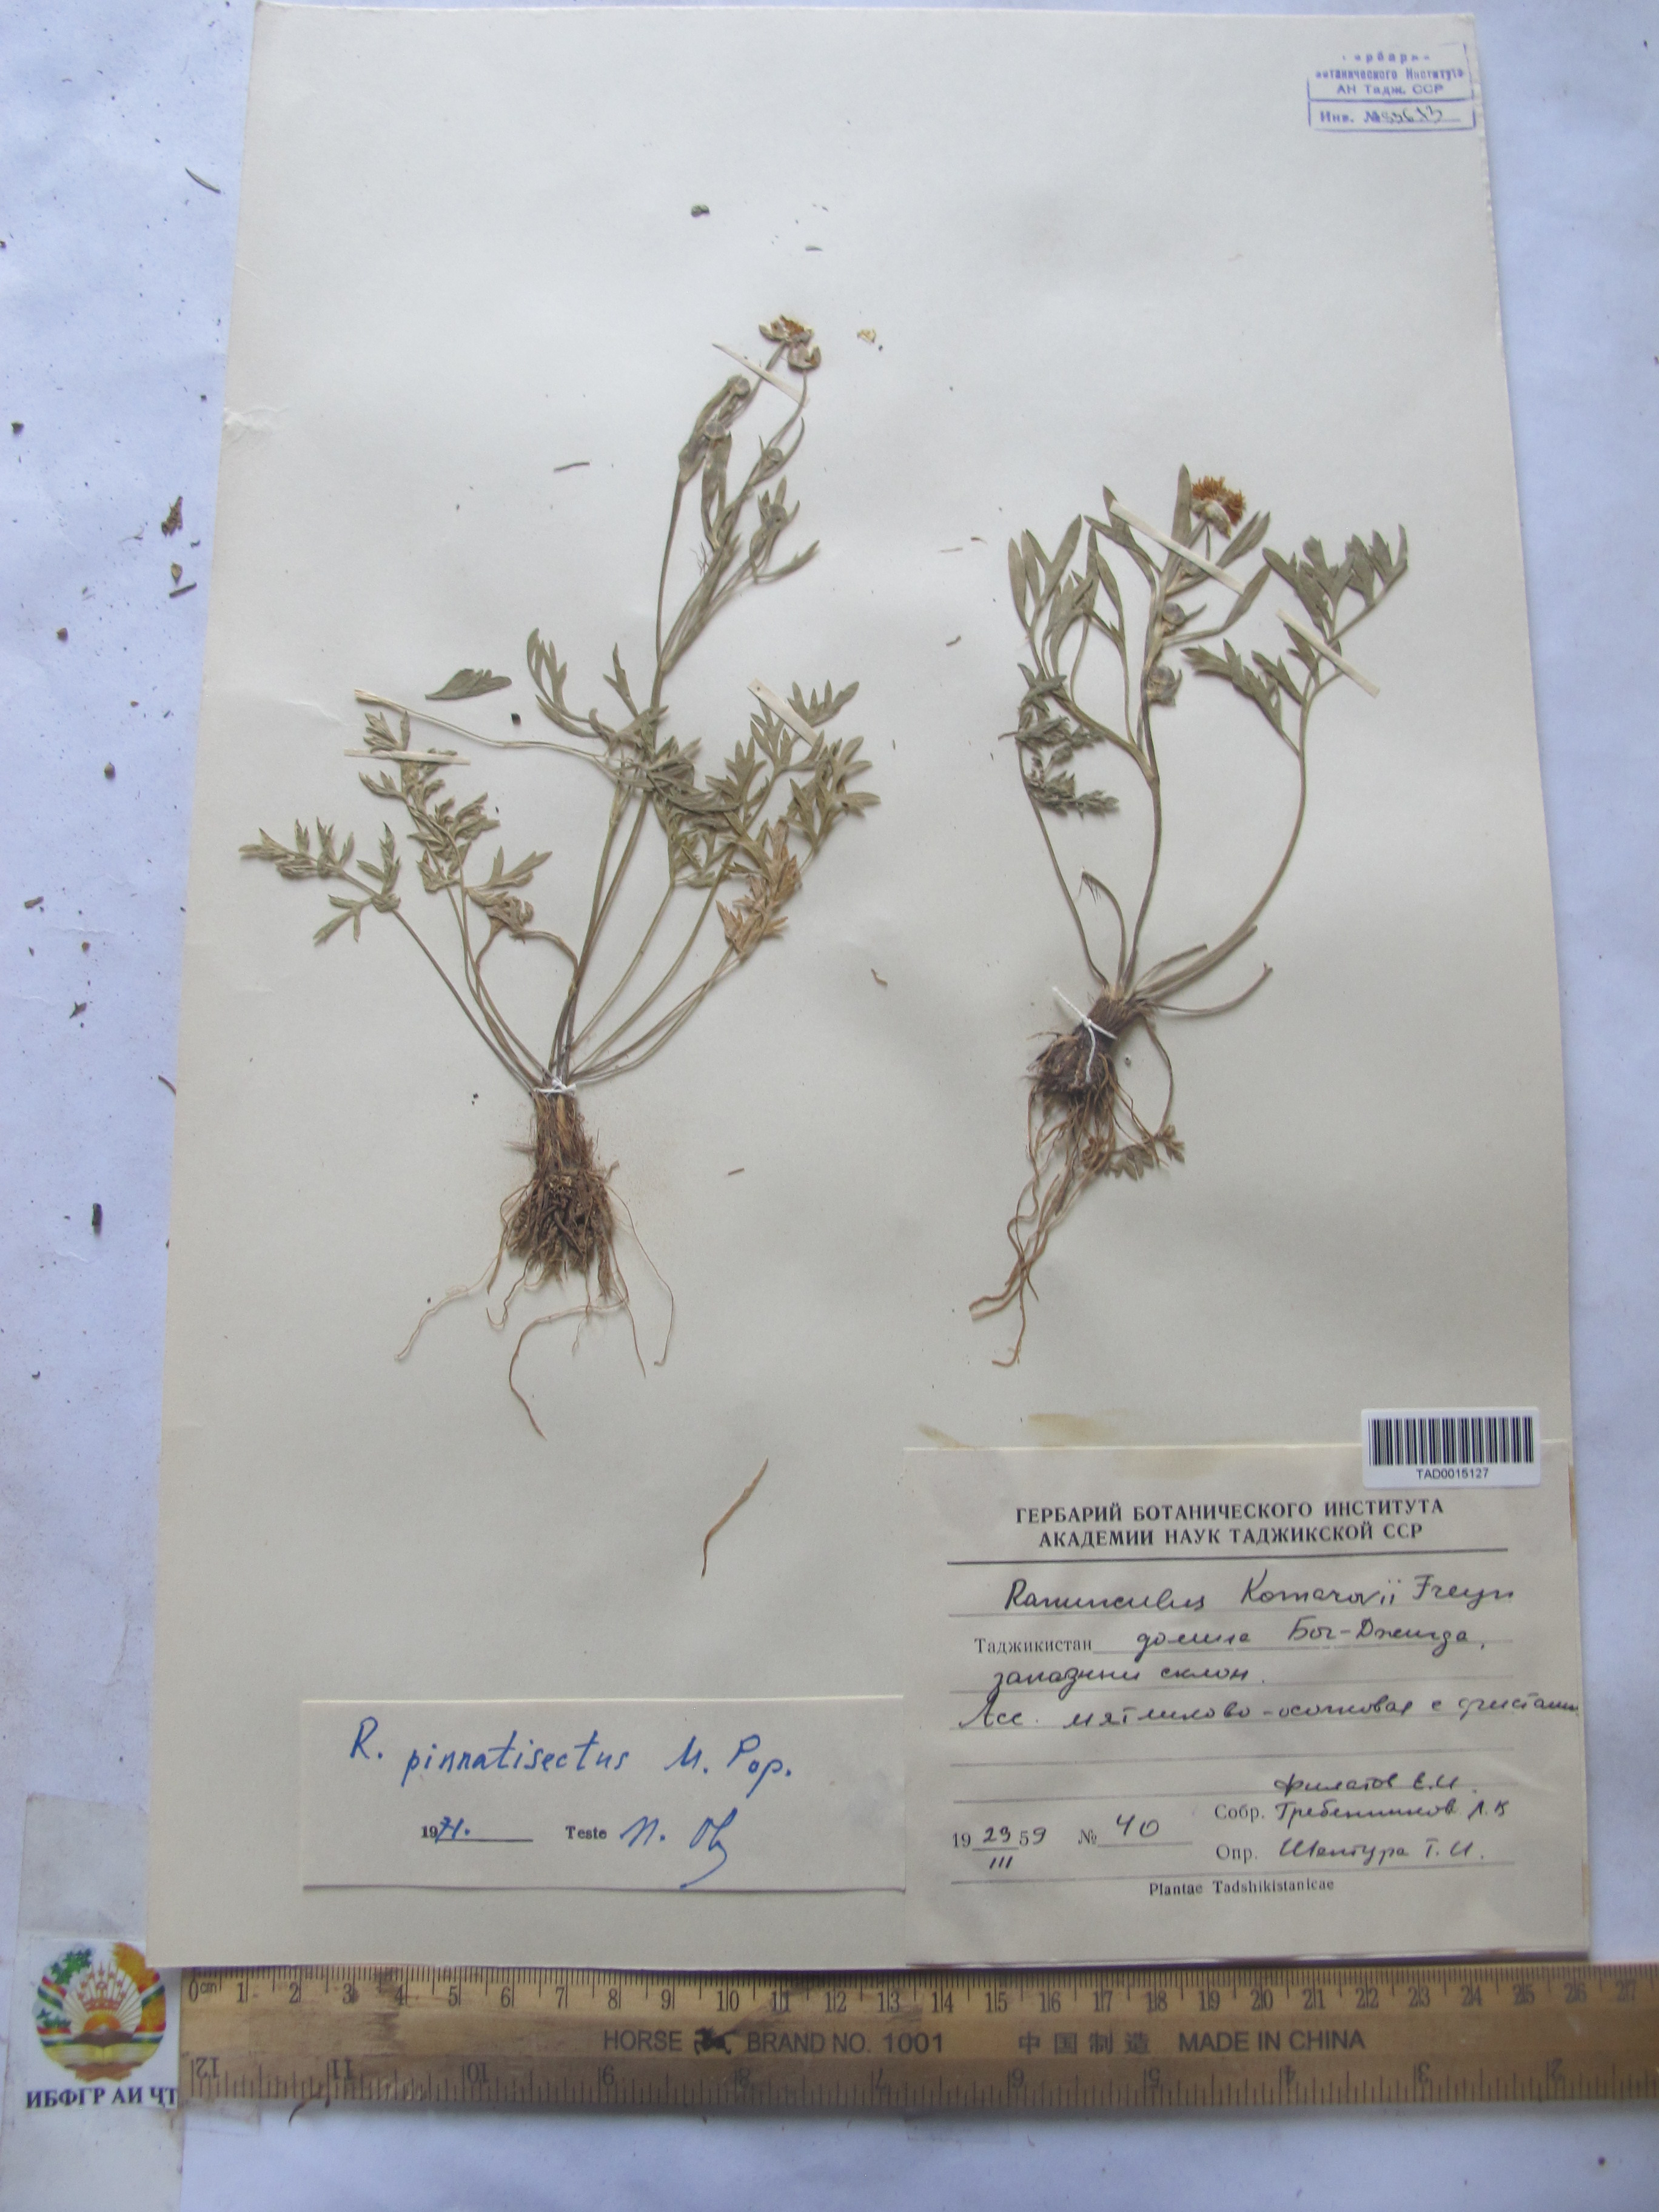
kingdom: Plantae
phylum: Tracheophyta
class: Magnoliopsida
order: Ranunculales
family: Ranunculaceae
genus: Ranunculus
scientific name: Ranunculus pinnatisectus
